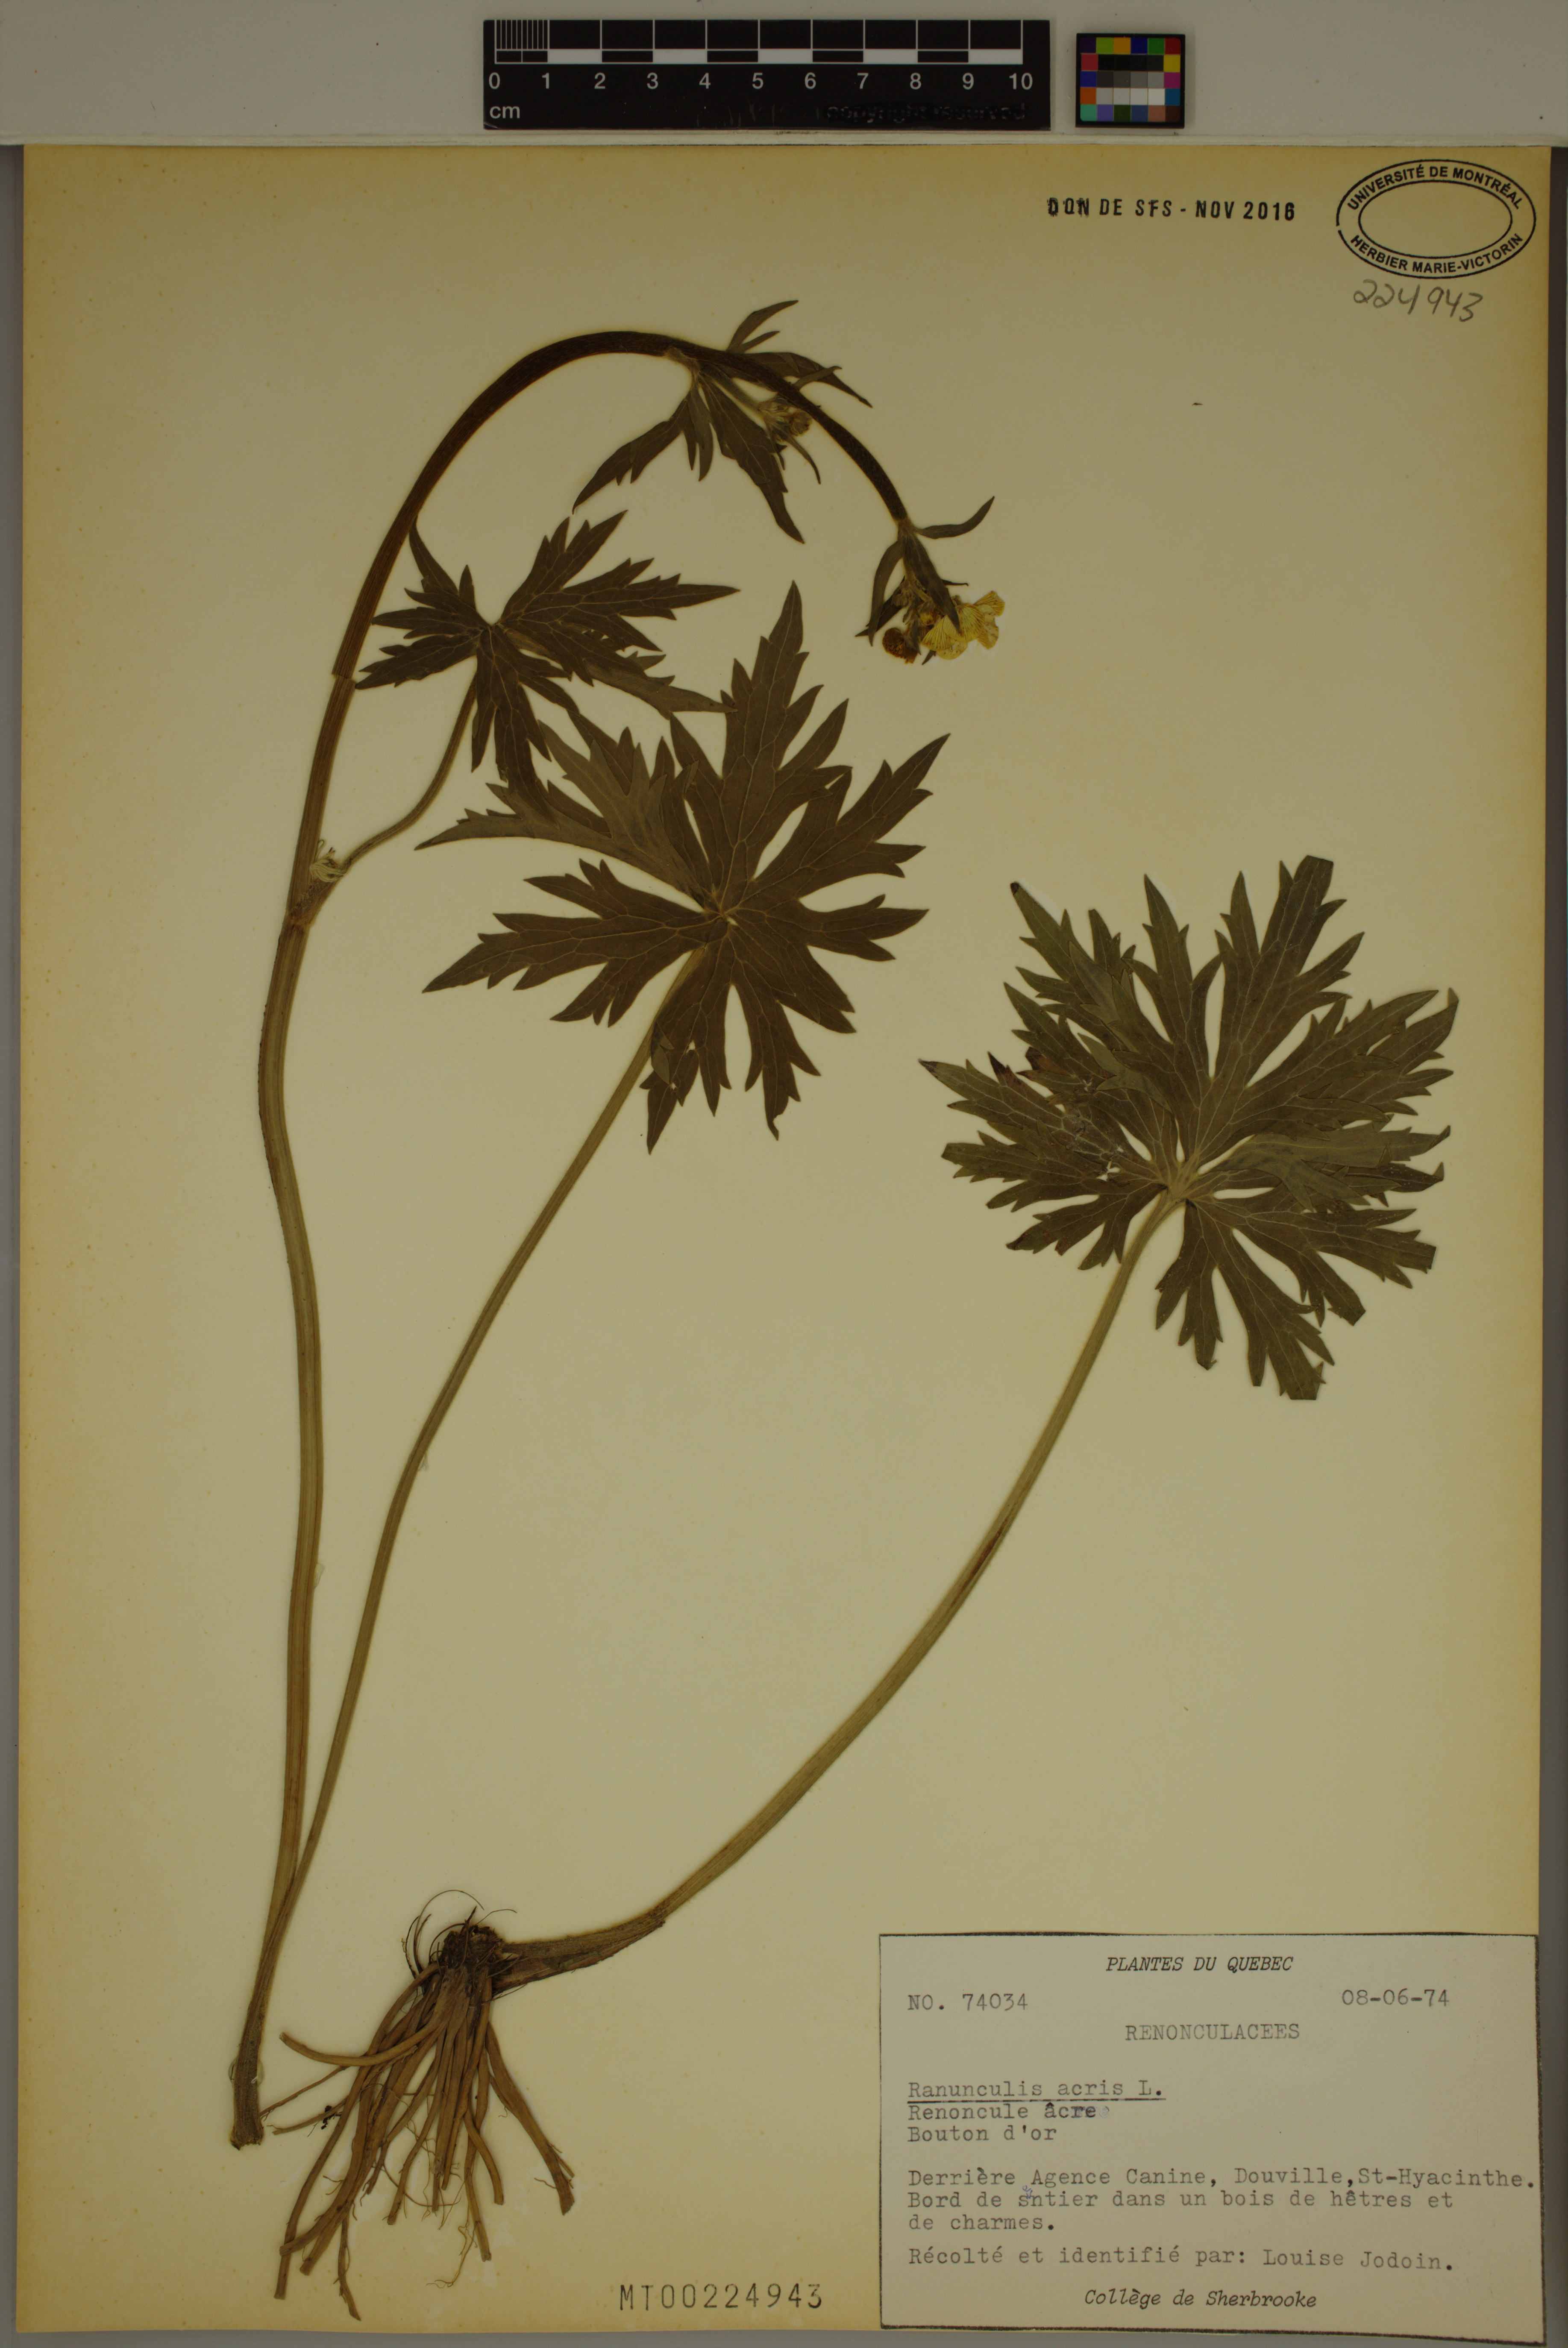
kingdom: Plantae
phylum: Tracheophyta
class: Magnoliopsida
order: Ranunculales
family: Ranunculaceae
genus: Ranunculus
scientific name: Ranunculus acris
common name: Meadow buttercup
